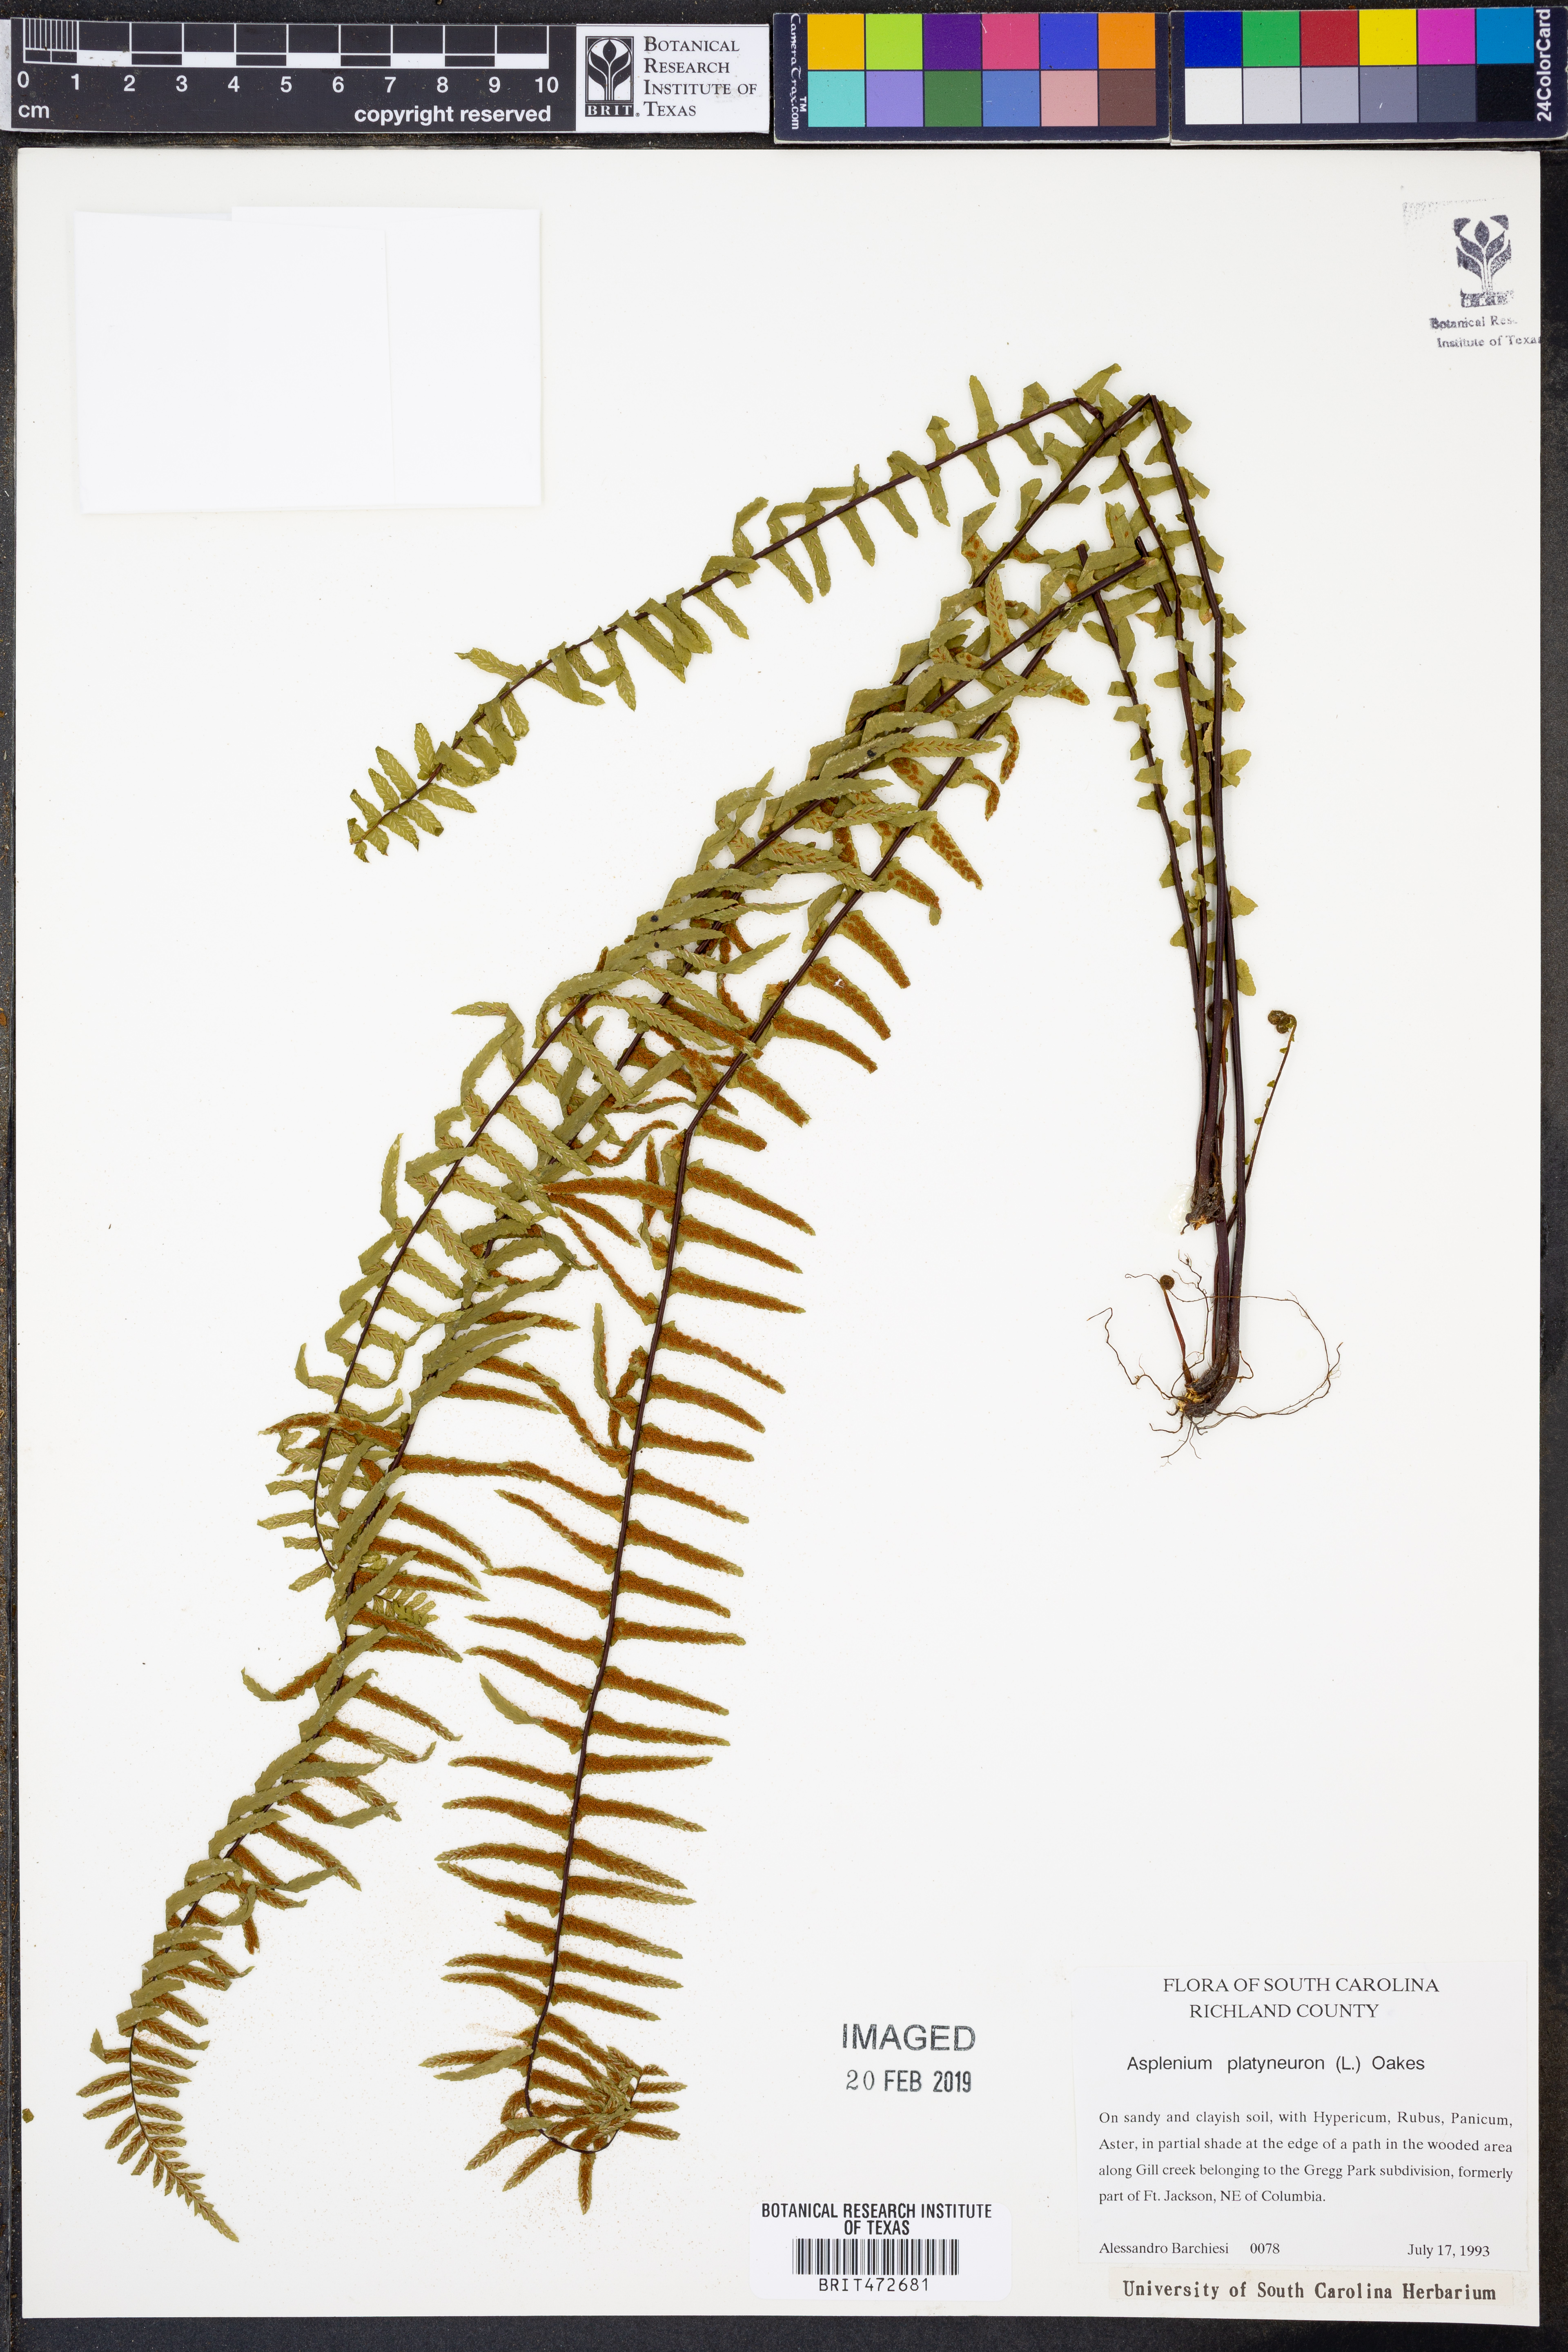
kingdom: Plantae
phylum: Tracheophyta
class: Polypodiopsida
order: Polypodiales
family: Aspleniaceae
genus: Asplenium
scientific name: Asplenium platyneuron
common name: Ebony spleenwort
